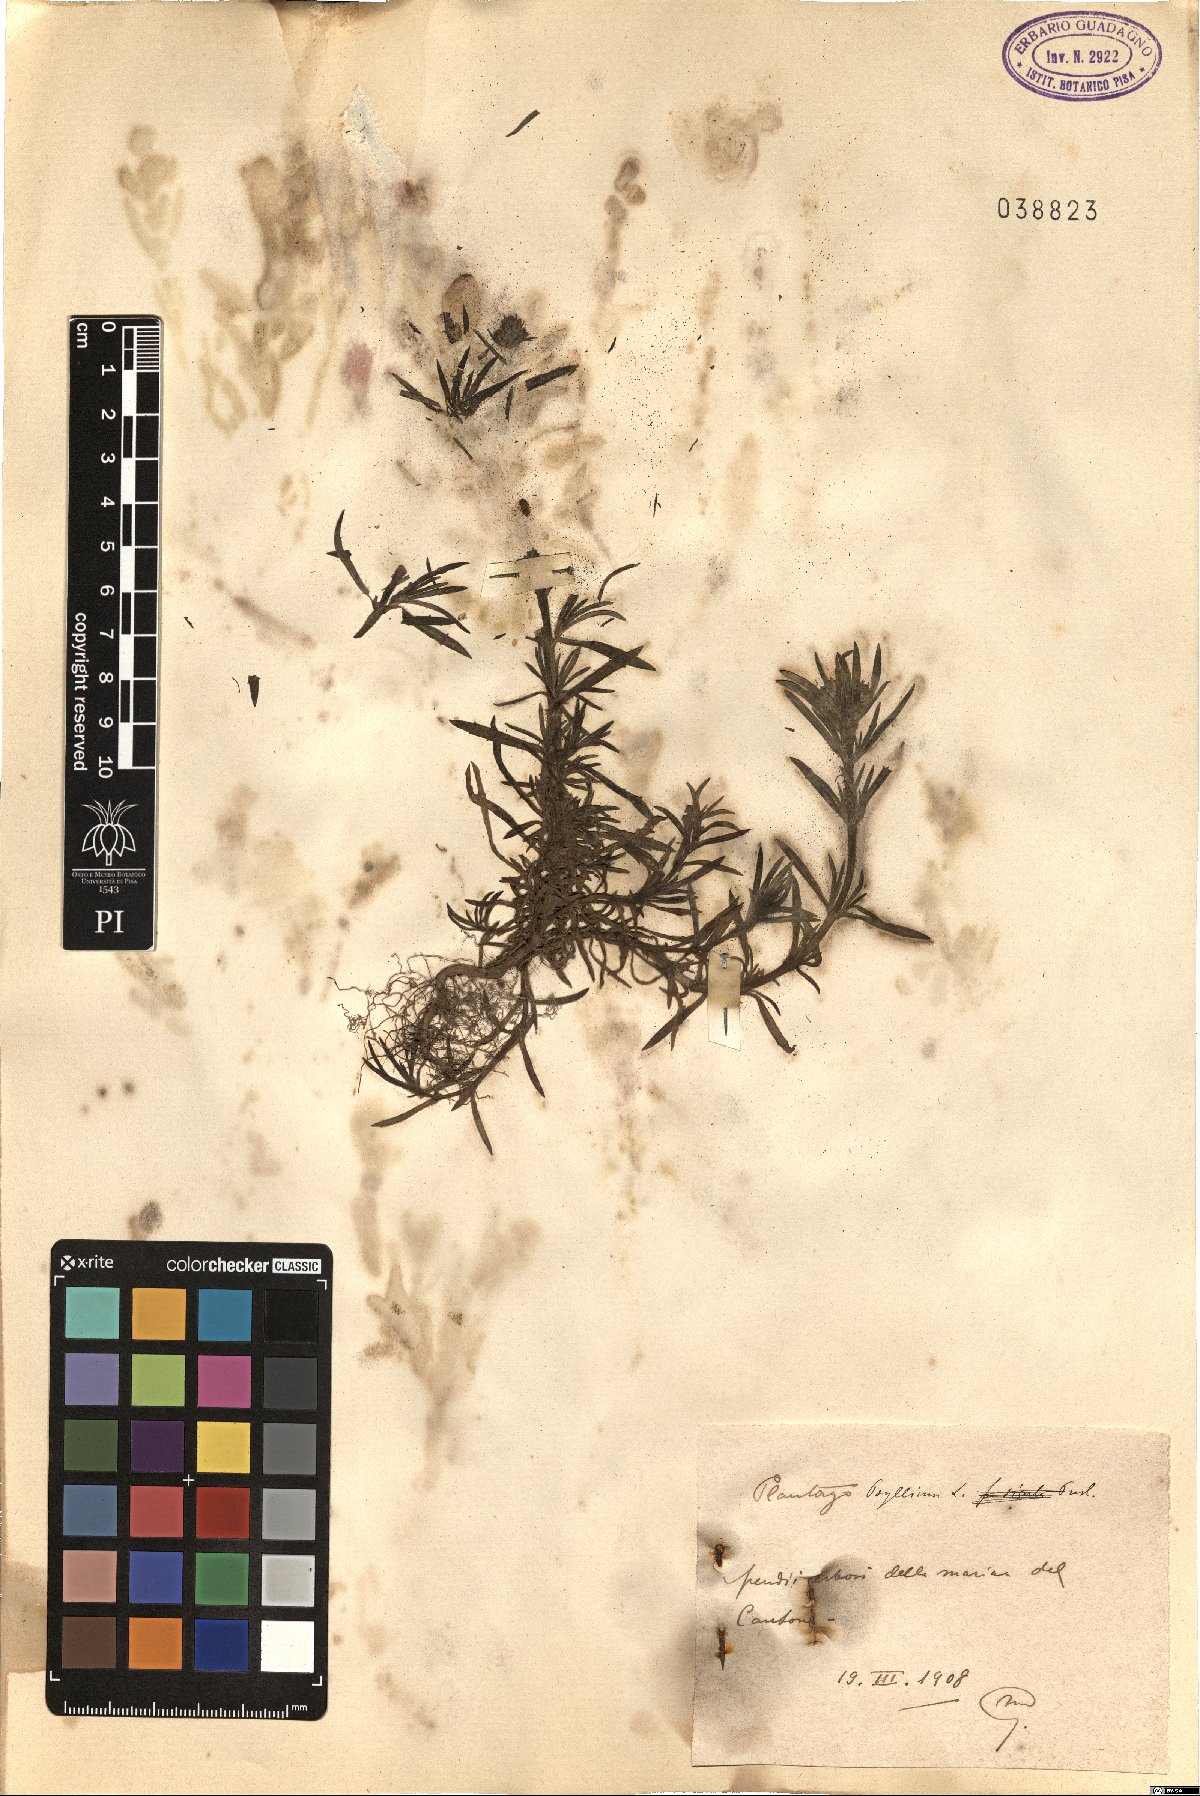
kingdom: Plantae
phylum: Tracheophyta
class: Magnoliopsida
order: Lamiales
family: Plantaginaceae
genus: Plantago
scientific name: Plantago
